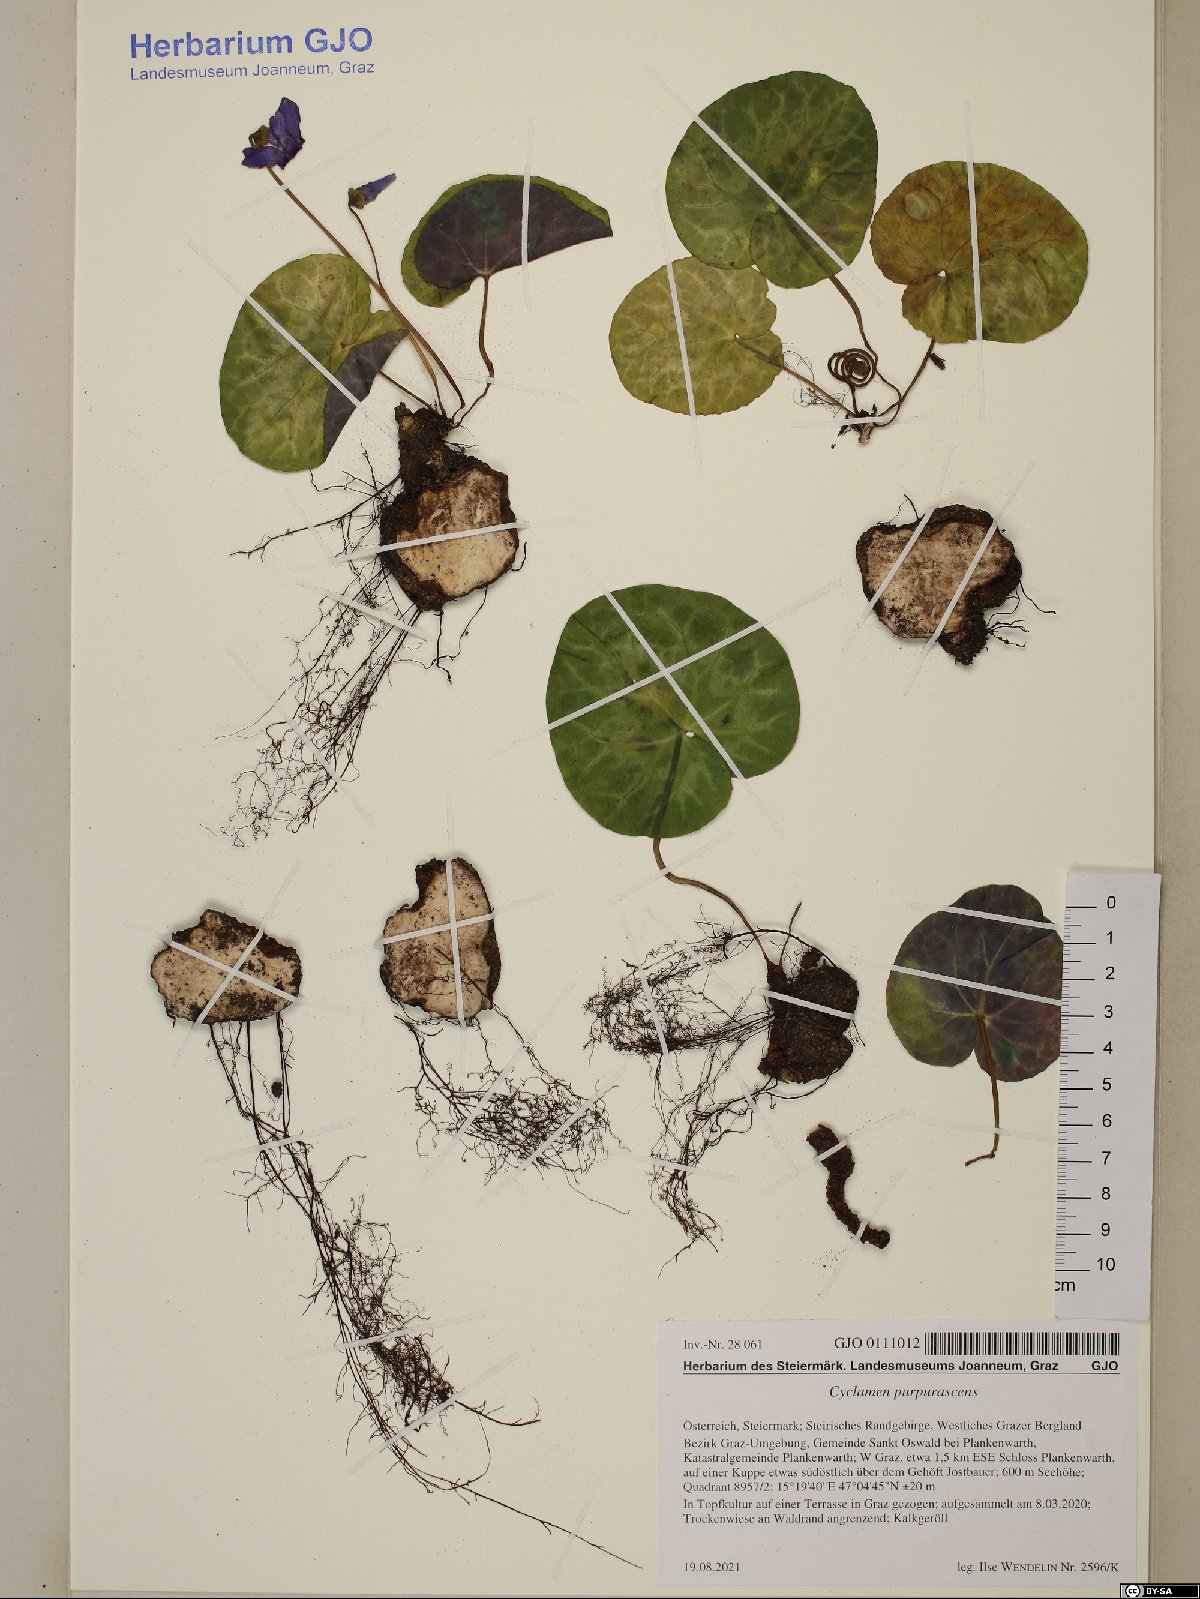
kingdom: Plantae
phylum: Tracheophyta
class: Magnoliopsida
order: Ericales
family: Primulaceae
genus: Cyclamen
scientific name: Cyclamen purpurascens
